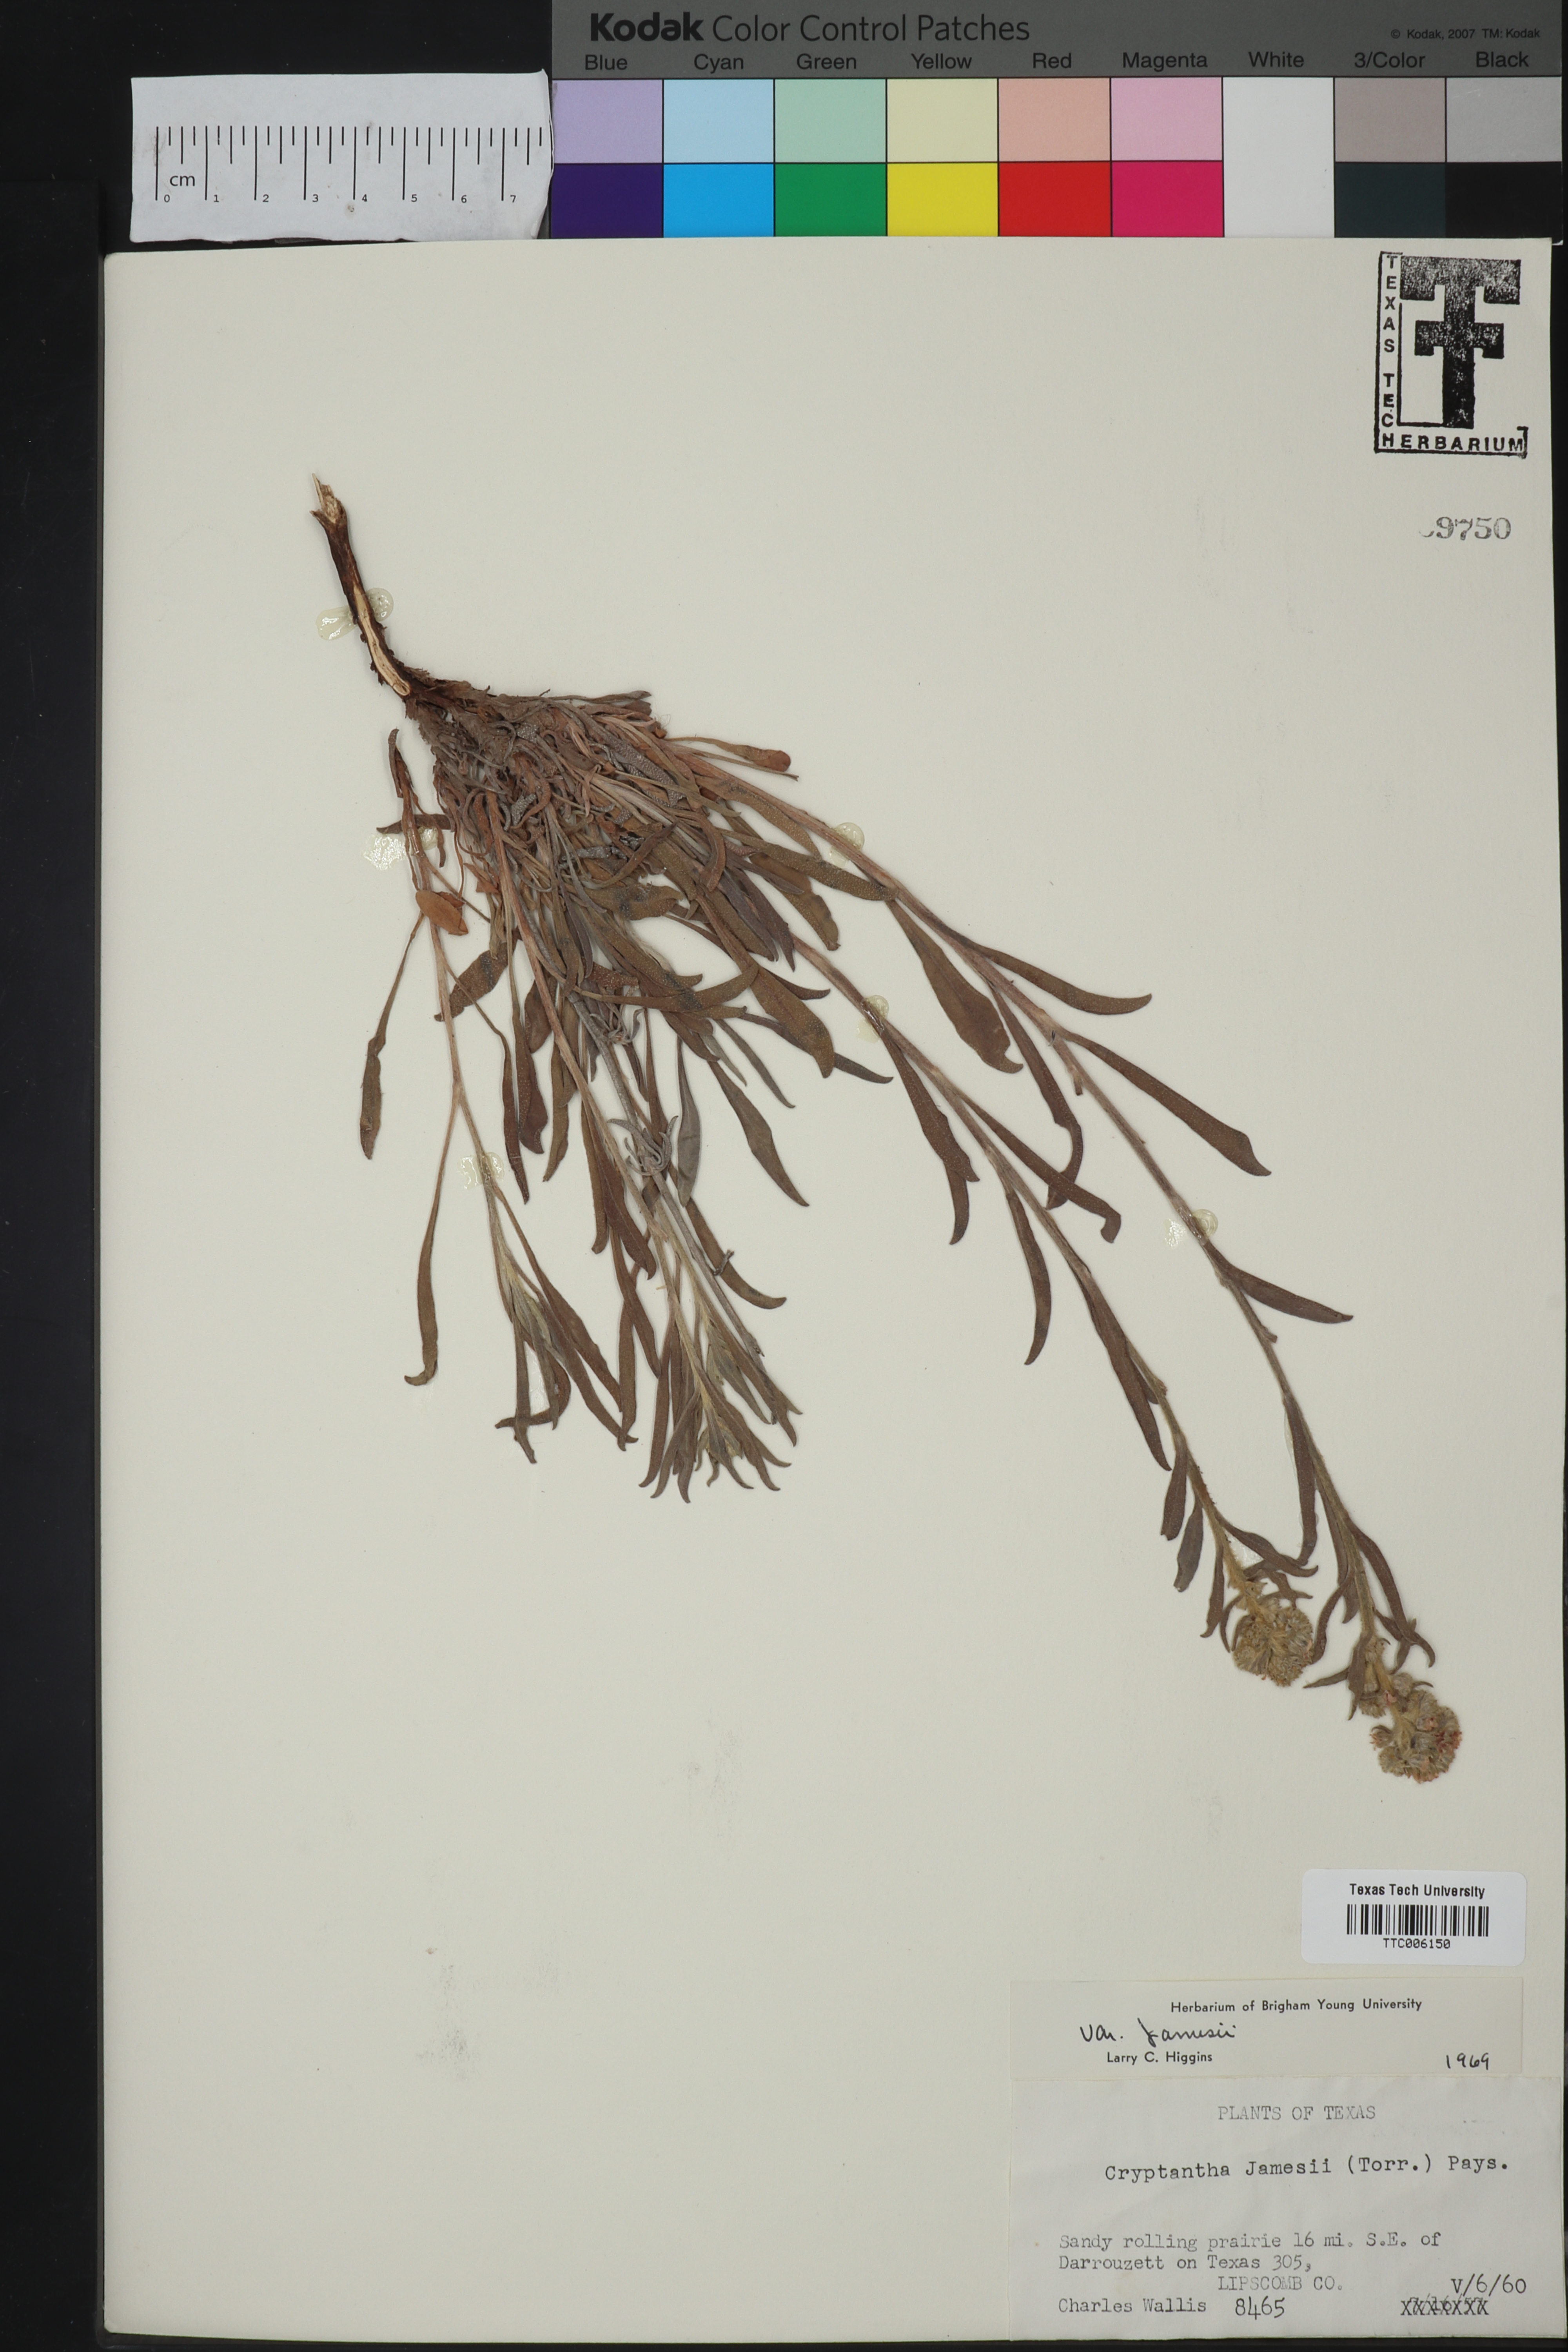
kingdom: Plantae
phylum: Tracheophyta
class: Magnoliopsida
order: Boraginales
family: Boraginaceae
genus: Oreocarya
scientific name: Oreocarya suffruticosa
